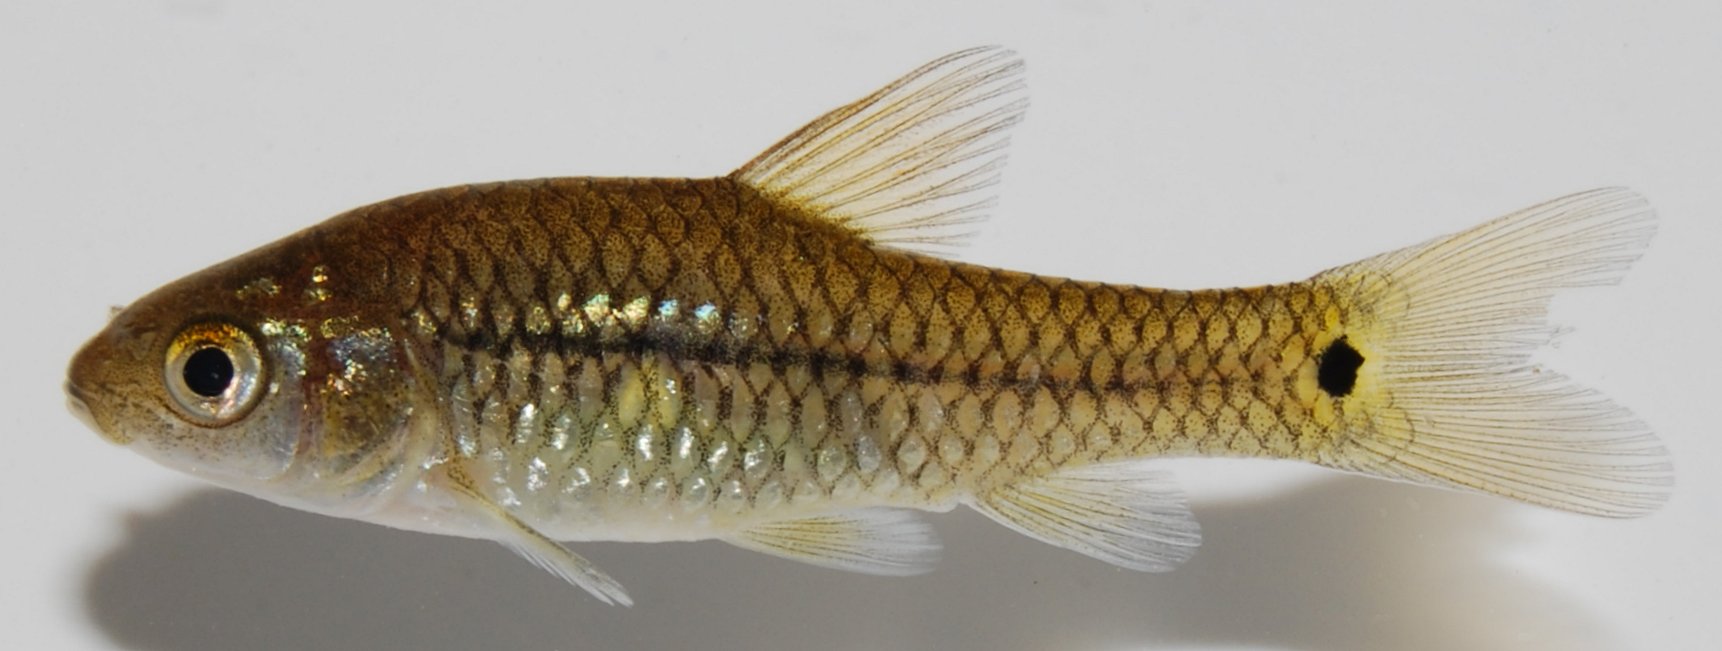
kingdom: Animalia
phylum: Chordata
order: Cypriniformes
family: Cyprinidae
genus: Enteromius
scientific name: Enteromius brevidorsalis
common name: Dwarf barb
